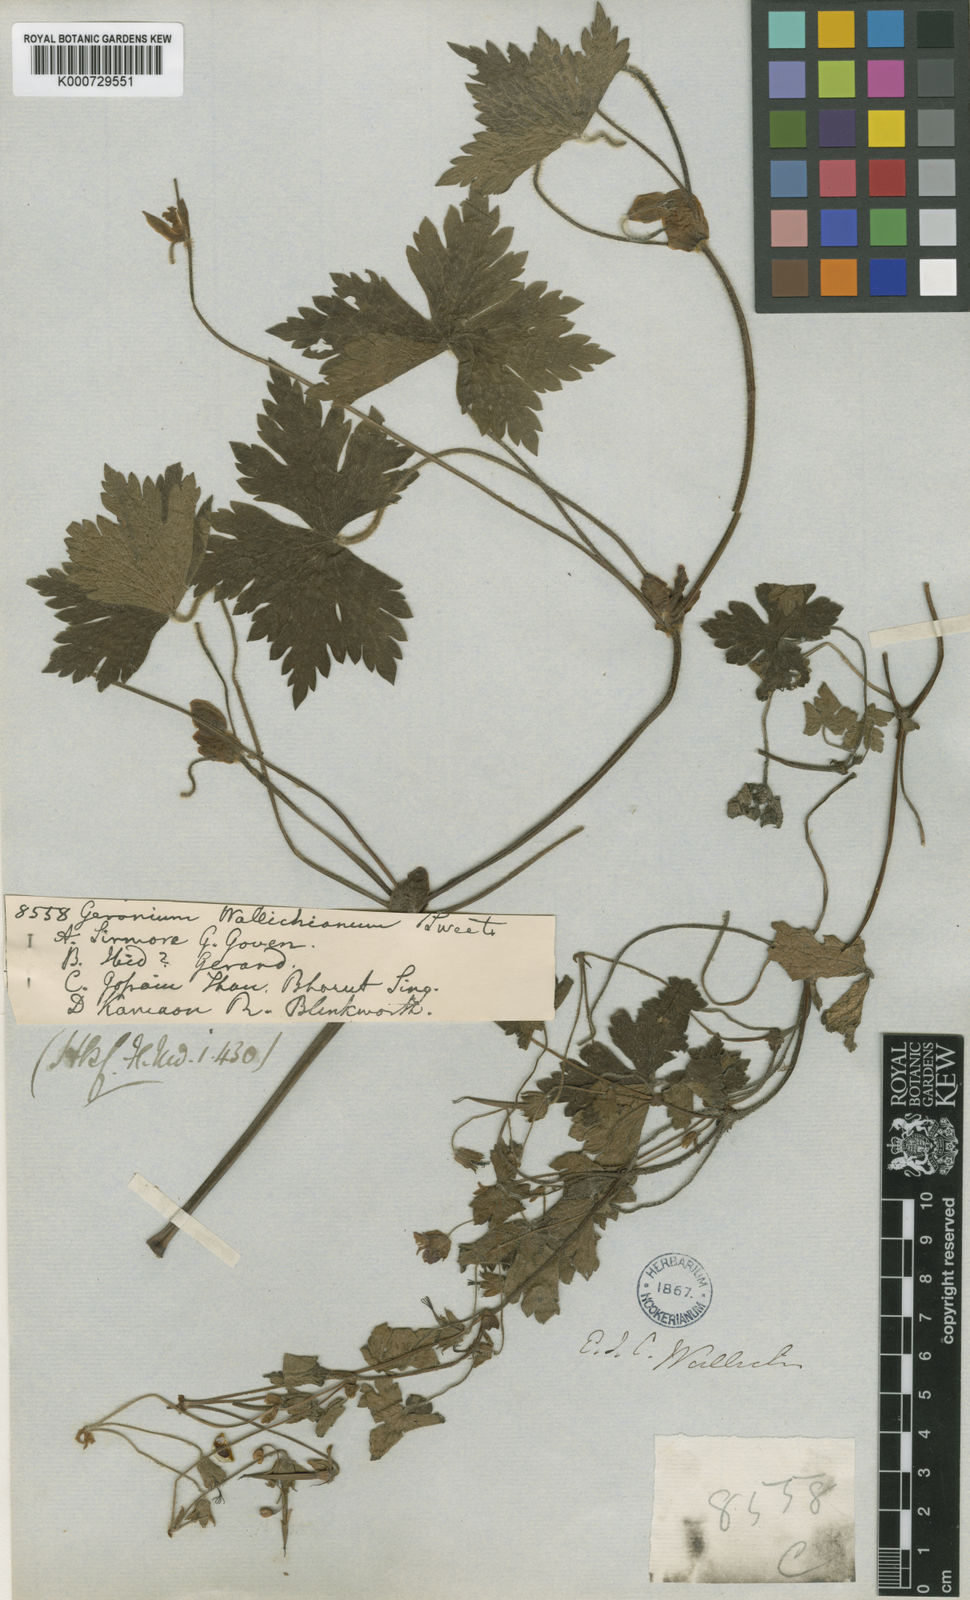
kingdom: Plantae
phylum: Tracheophyta
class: Magnoliopsida
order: Geraniales
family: Geraniaceae
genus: Geranium
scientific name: Geranium wallichianum
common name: Buxton's blue
